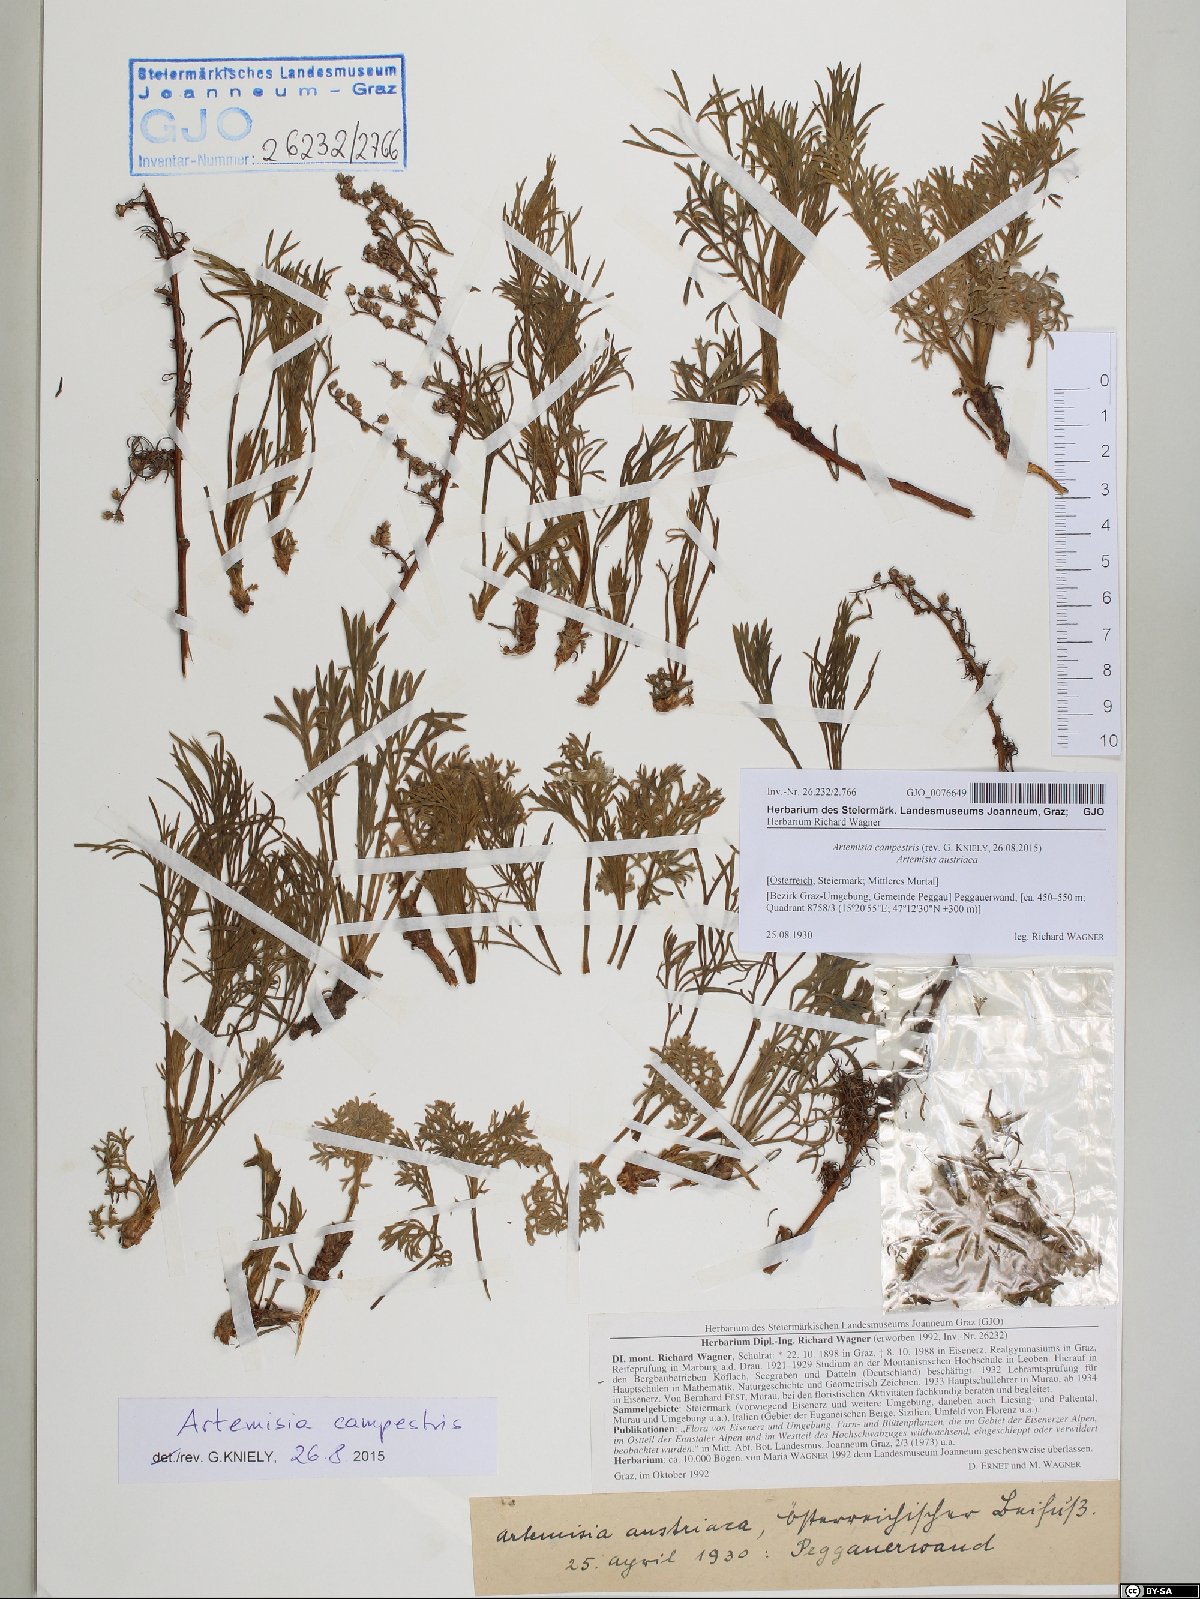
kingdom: Plantae
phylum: Tracheophyta
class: Magnoliopsida
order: Asterales
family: Asteraceae
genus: Artemisia
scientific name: Artemisia campestris
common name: Field wormwood
